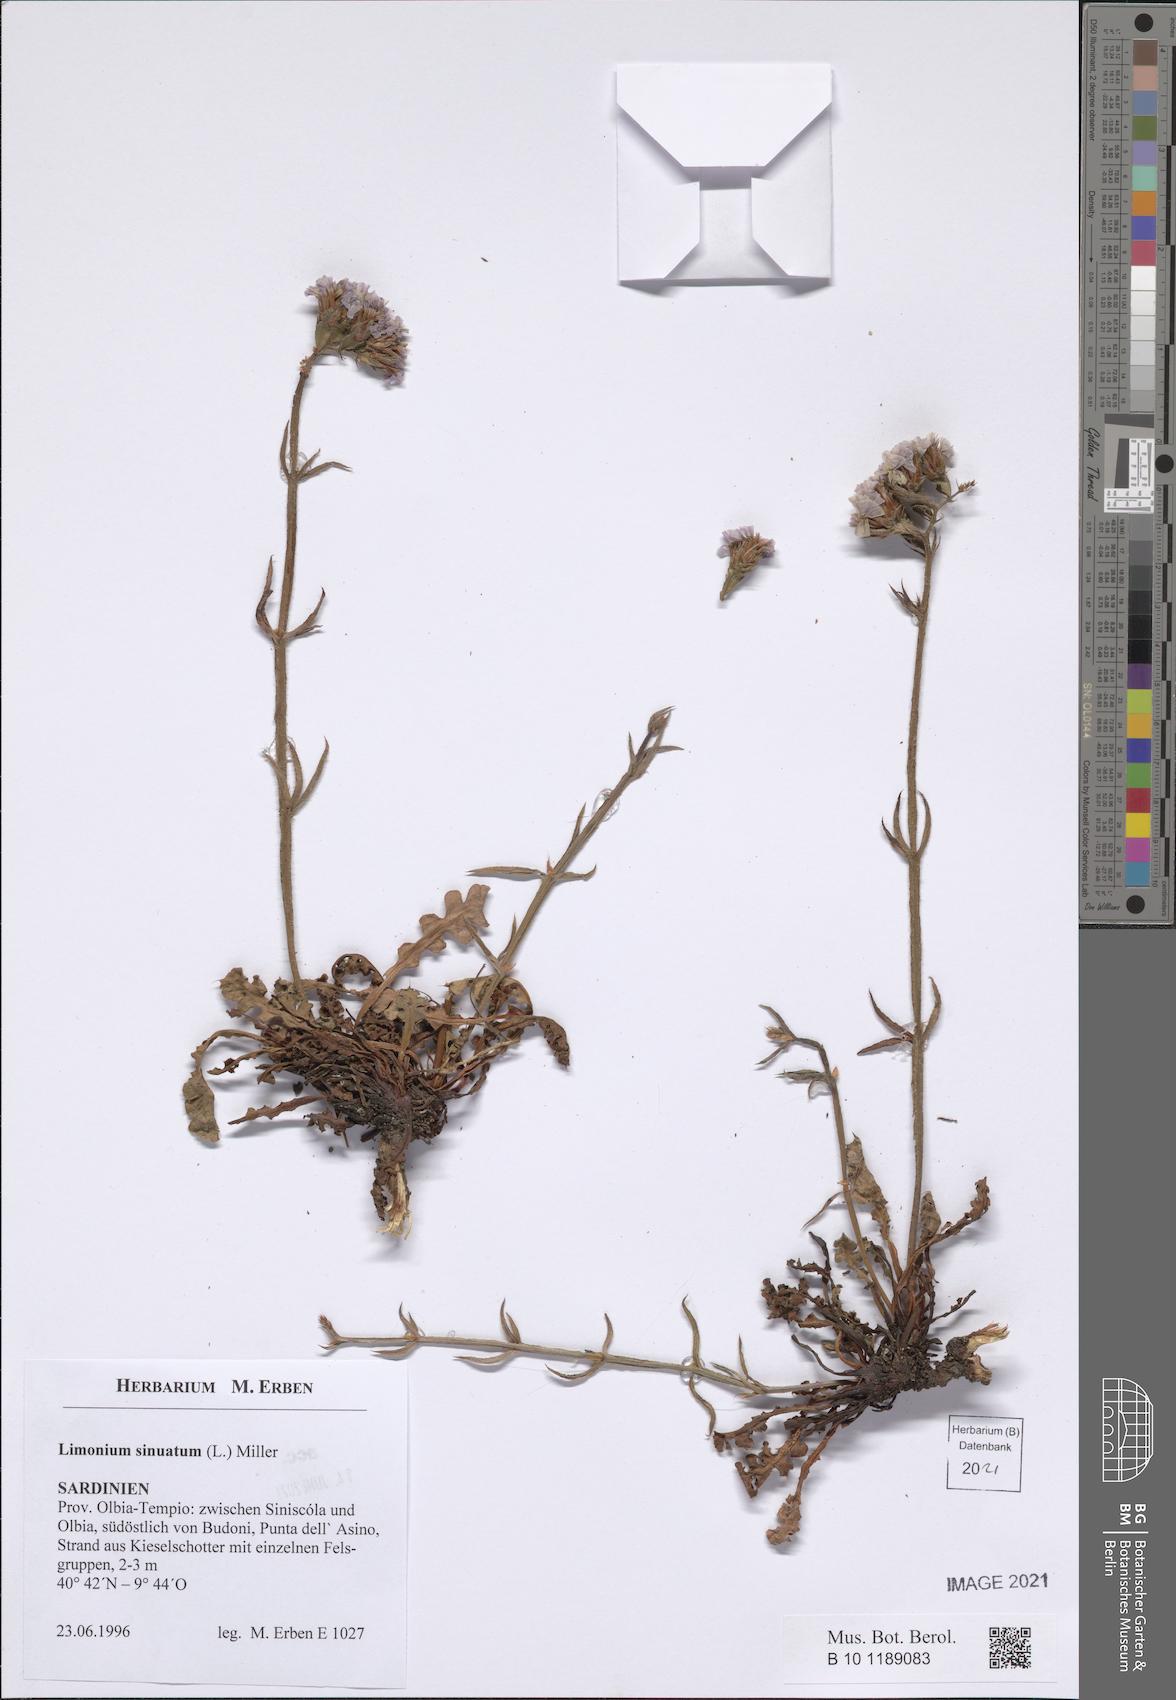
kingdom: Plantae
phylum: Tracheophyta
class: Magnoliopsida
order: Caryophyllales
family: Plumbaginaceae
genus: Limonium
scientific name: Limonium sinuatum
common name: Statice
